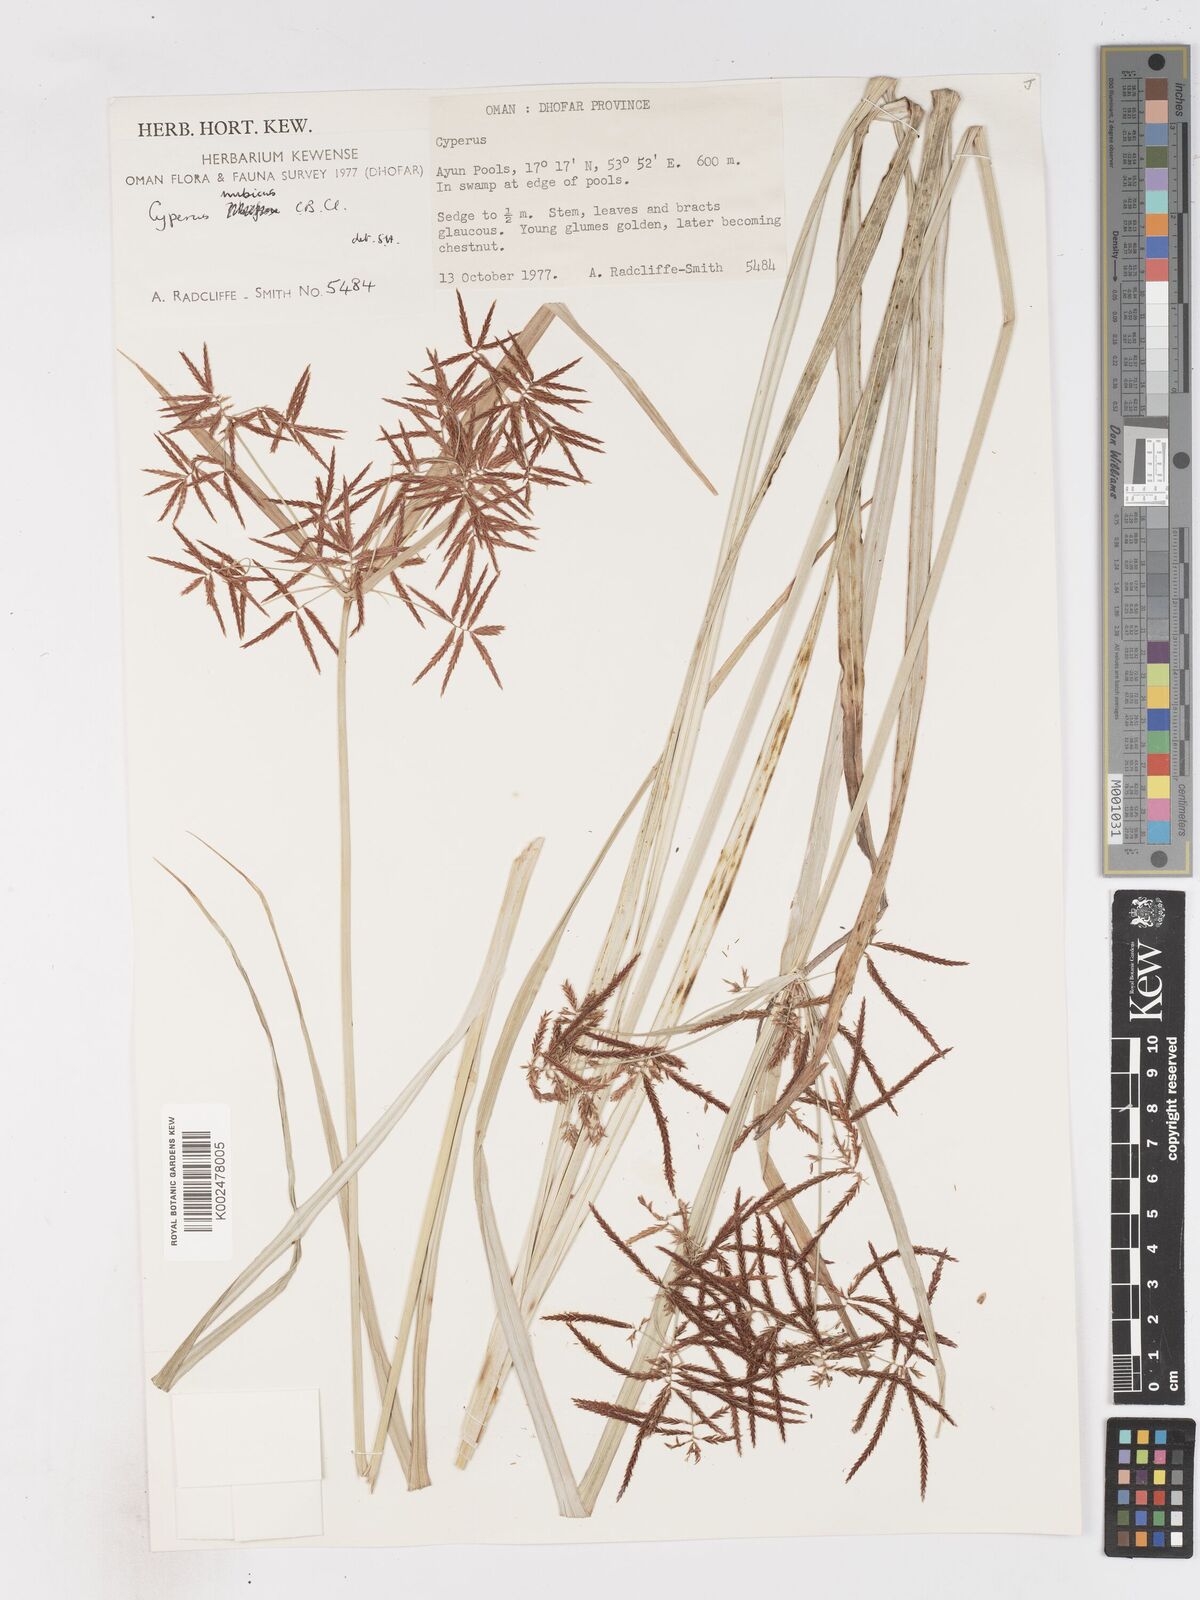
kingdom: Plantae
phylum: Tracheophyta
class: Liliopsida
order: Poales
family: Cyperaceae
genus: Cyperus
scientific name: Cyperus rotundus
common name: Nutgrass
